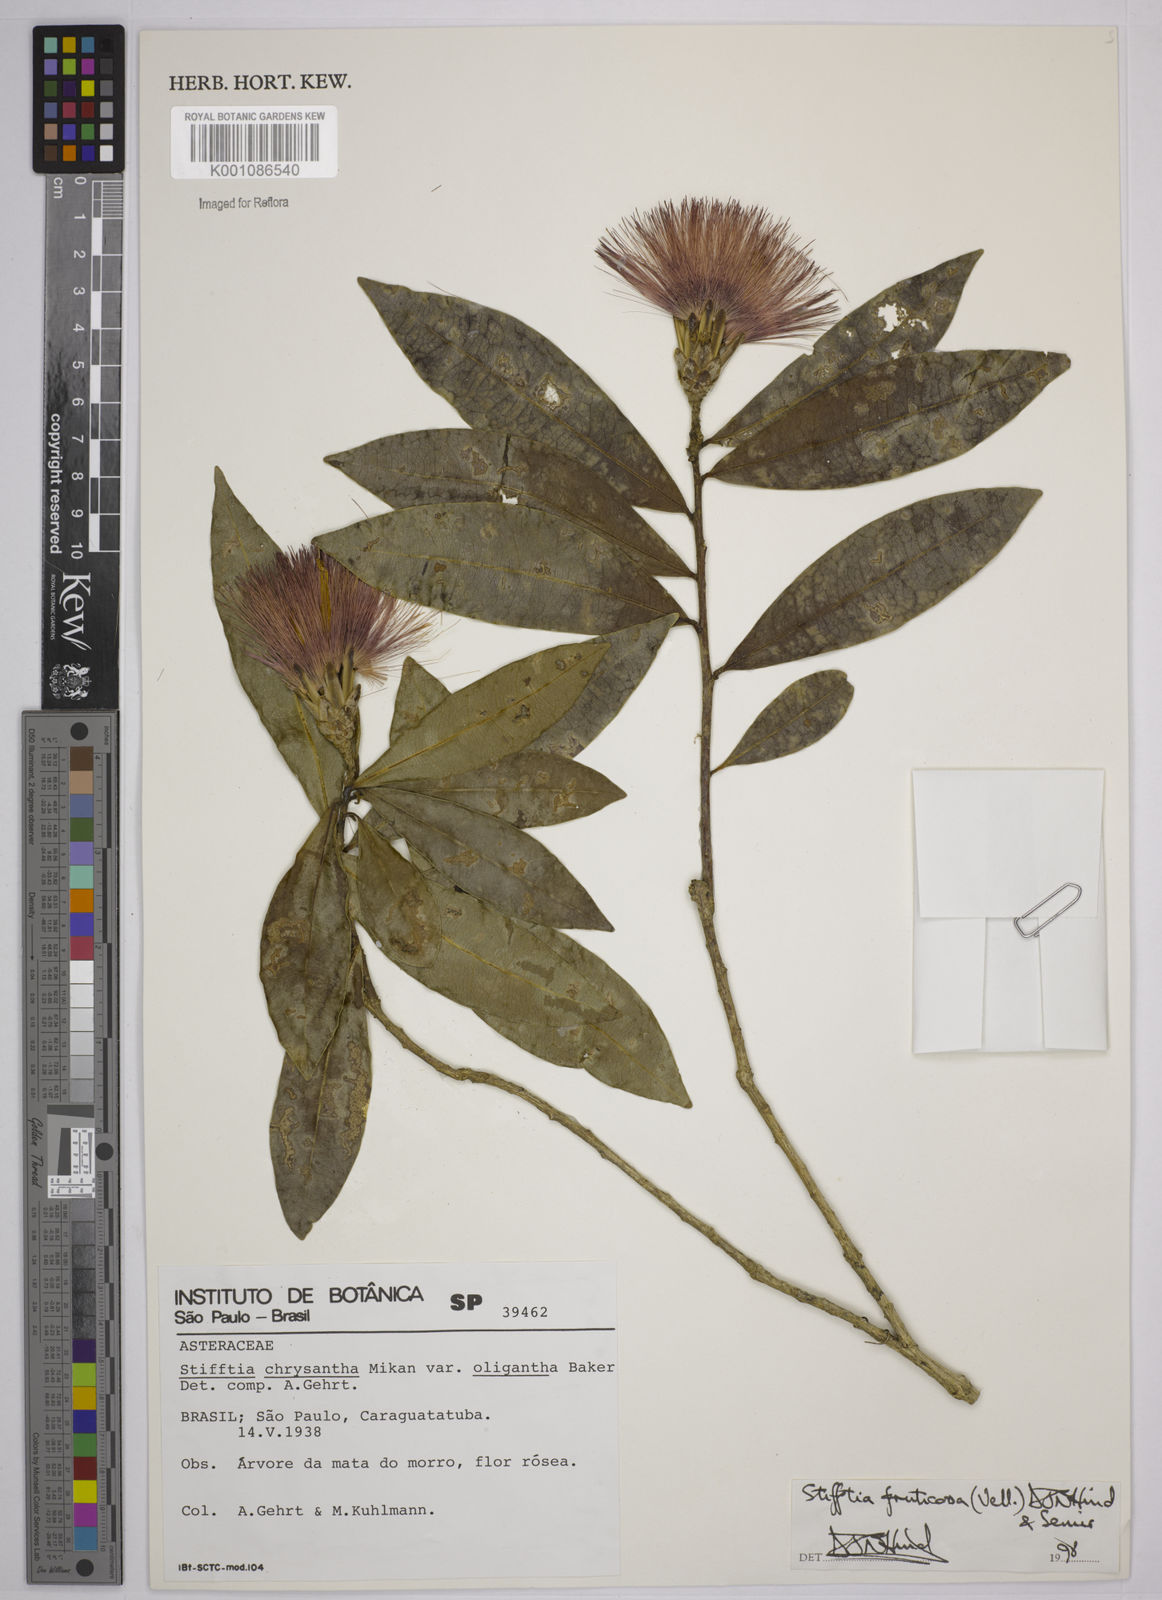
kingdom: Plantae
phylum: Tracheophyta
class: Magnoliopsida
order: Asterales
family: Asteraceae
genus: Stifftia
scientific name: Stifftia fruticosa
